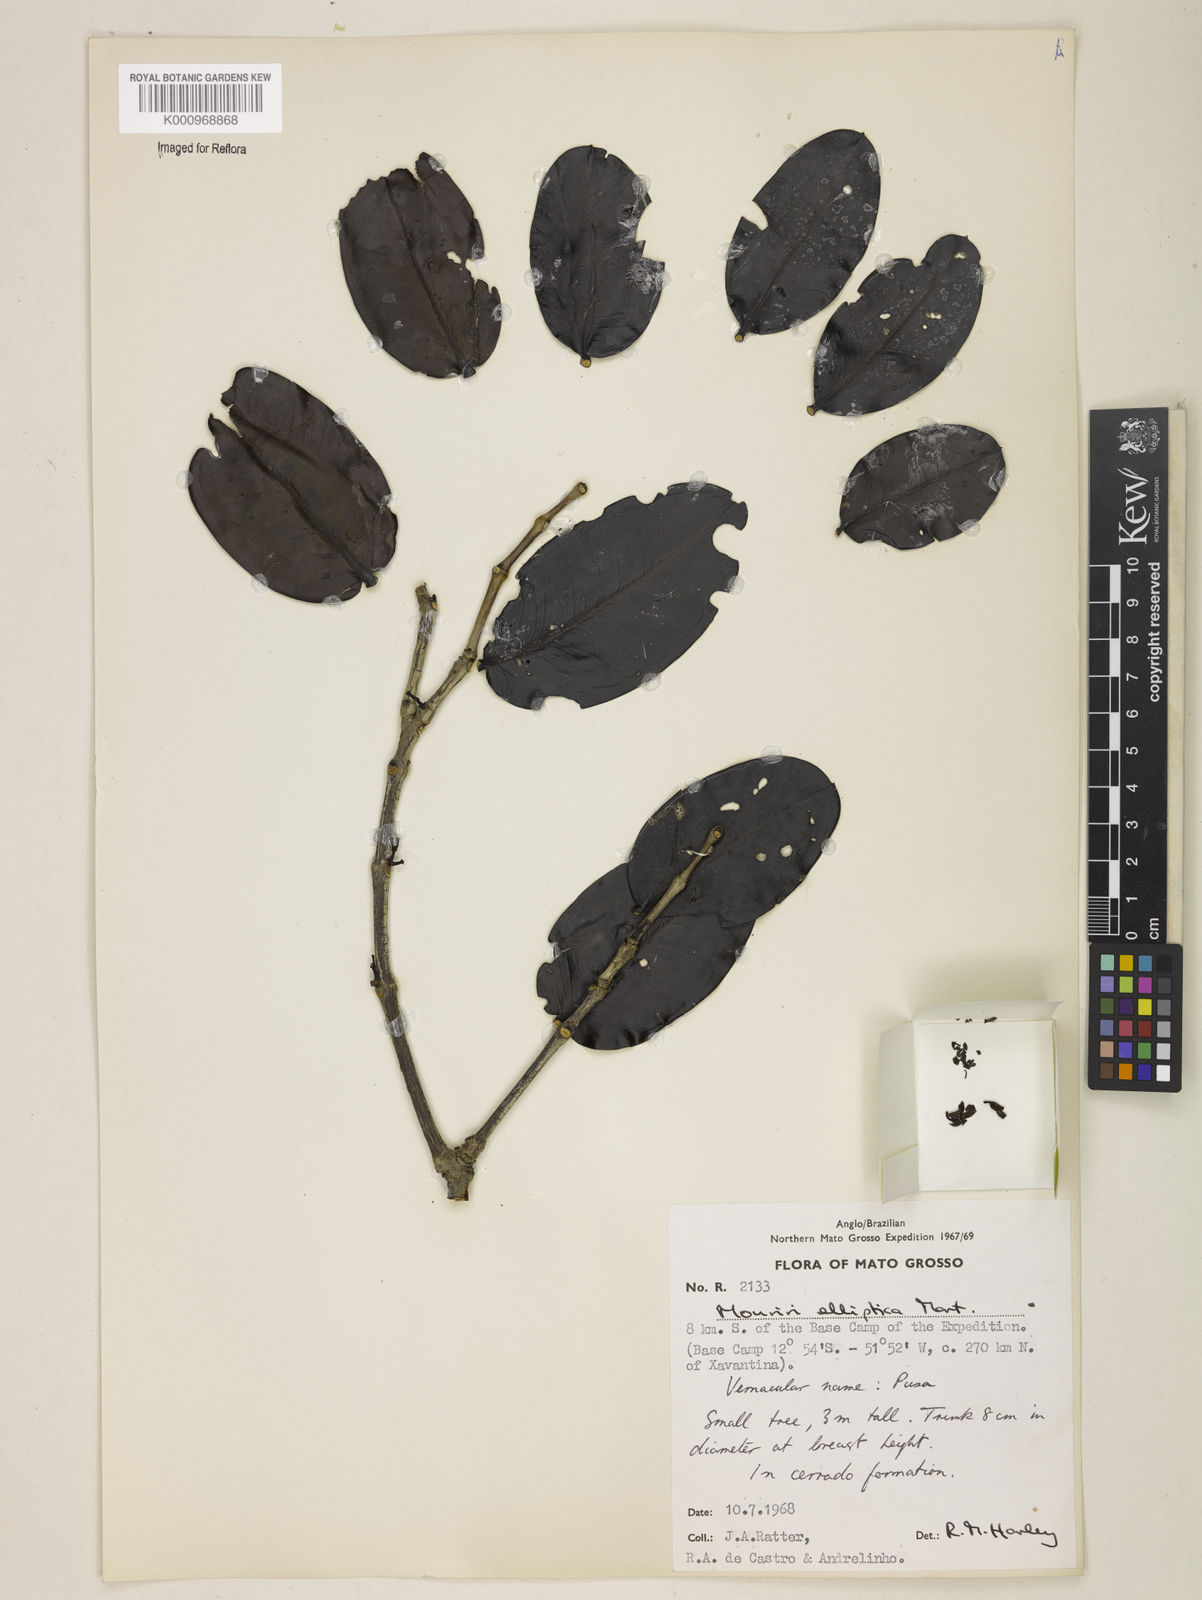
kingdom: Plantae
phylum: Tracheophyta
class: Magnoliopsida
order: Myrtales
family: Melastomataceae
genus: Mouriri
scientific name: Mouriri elliptica
